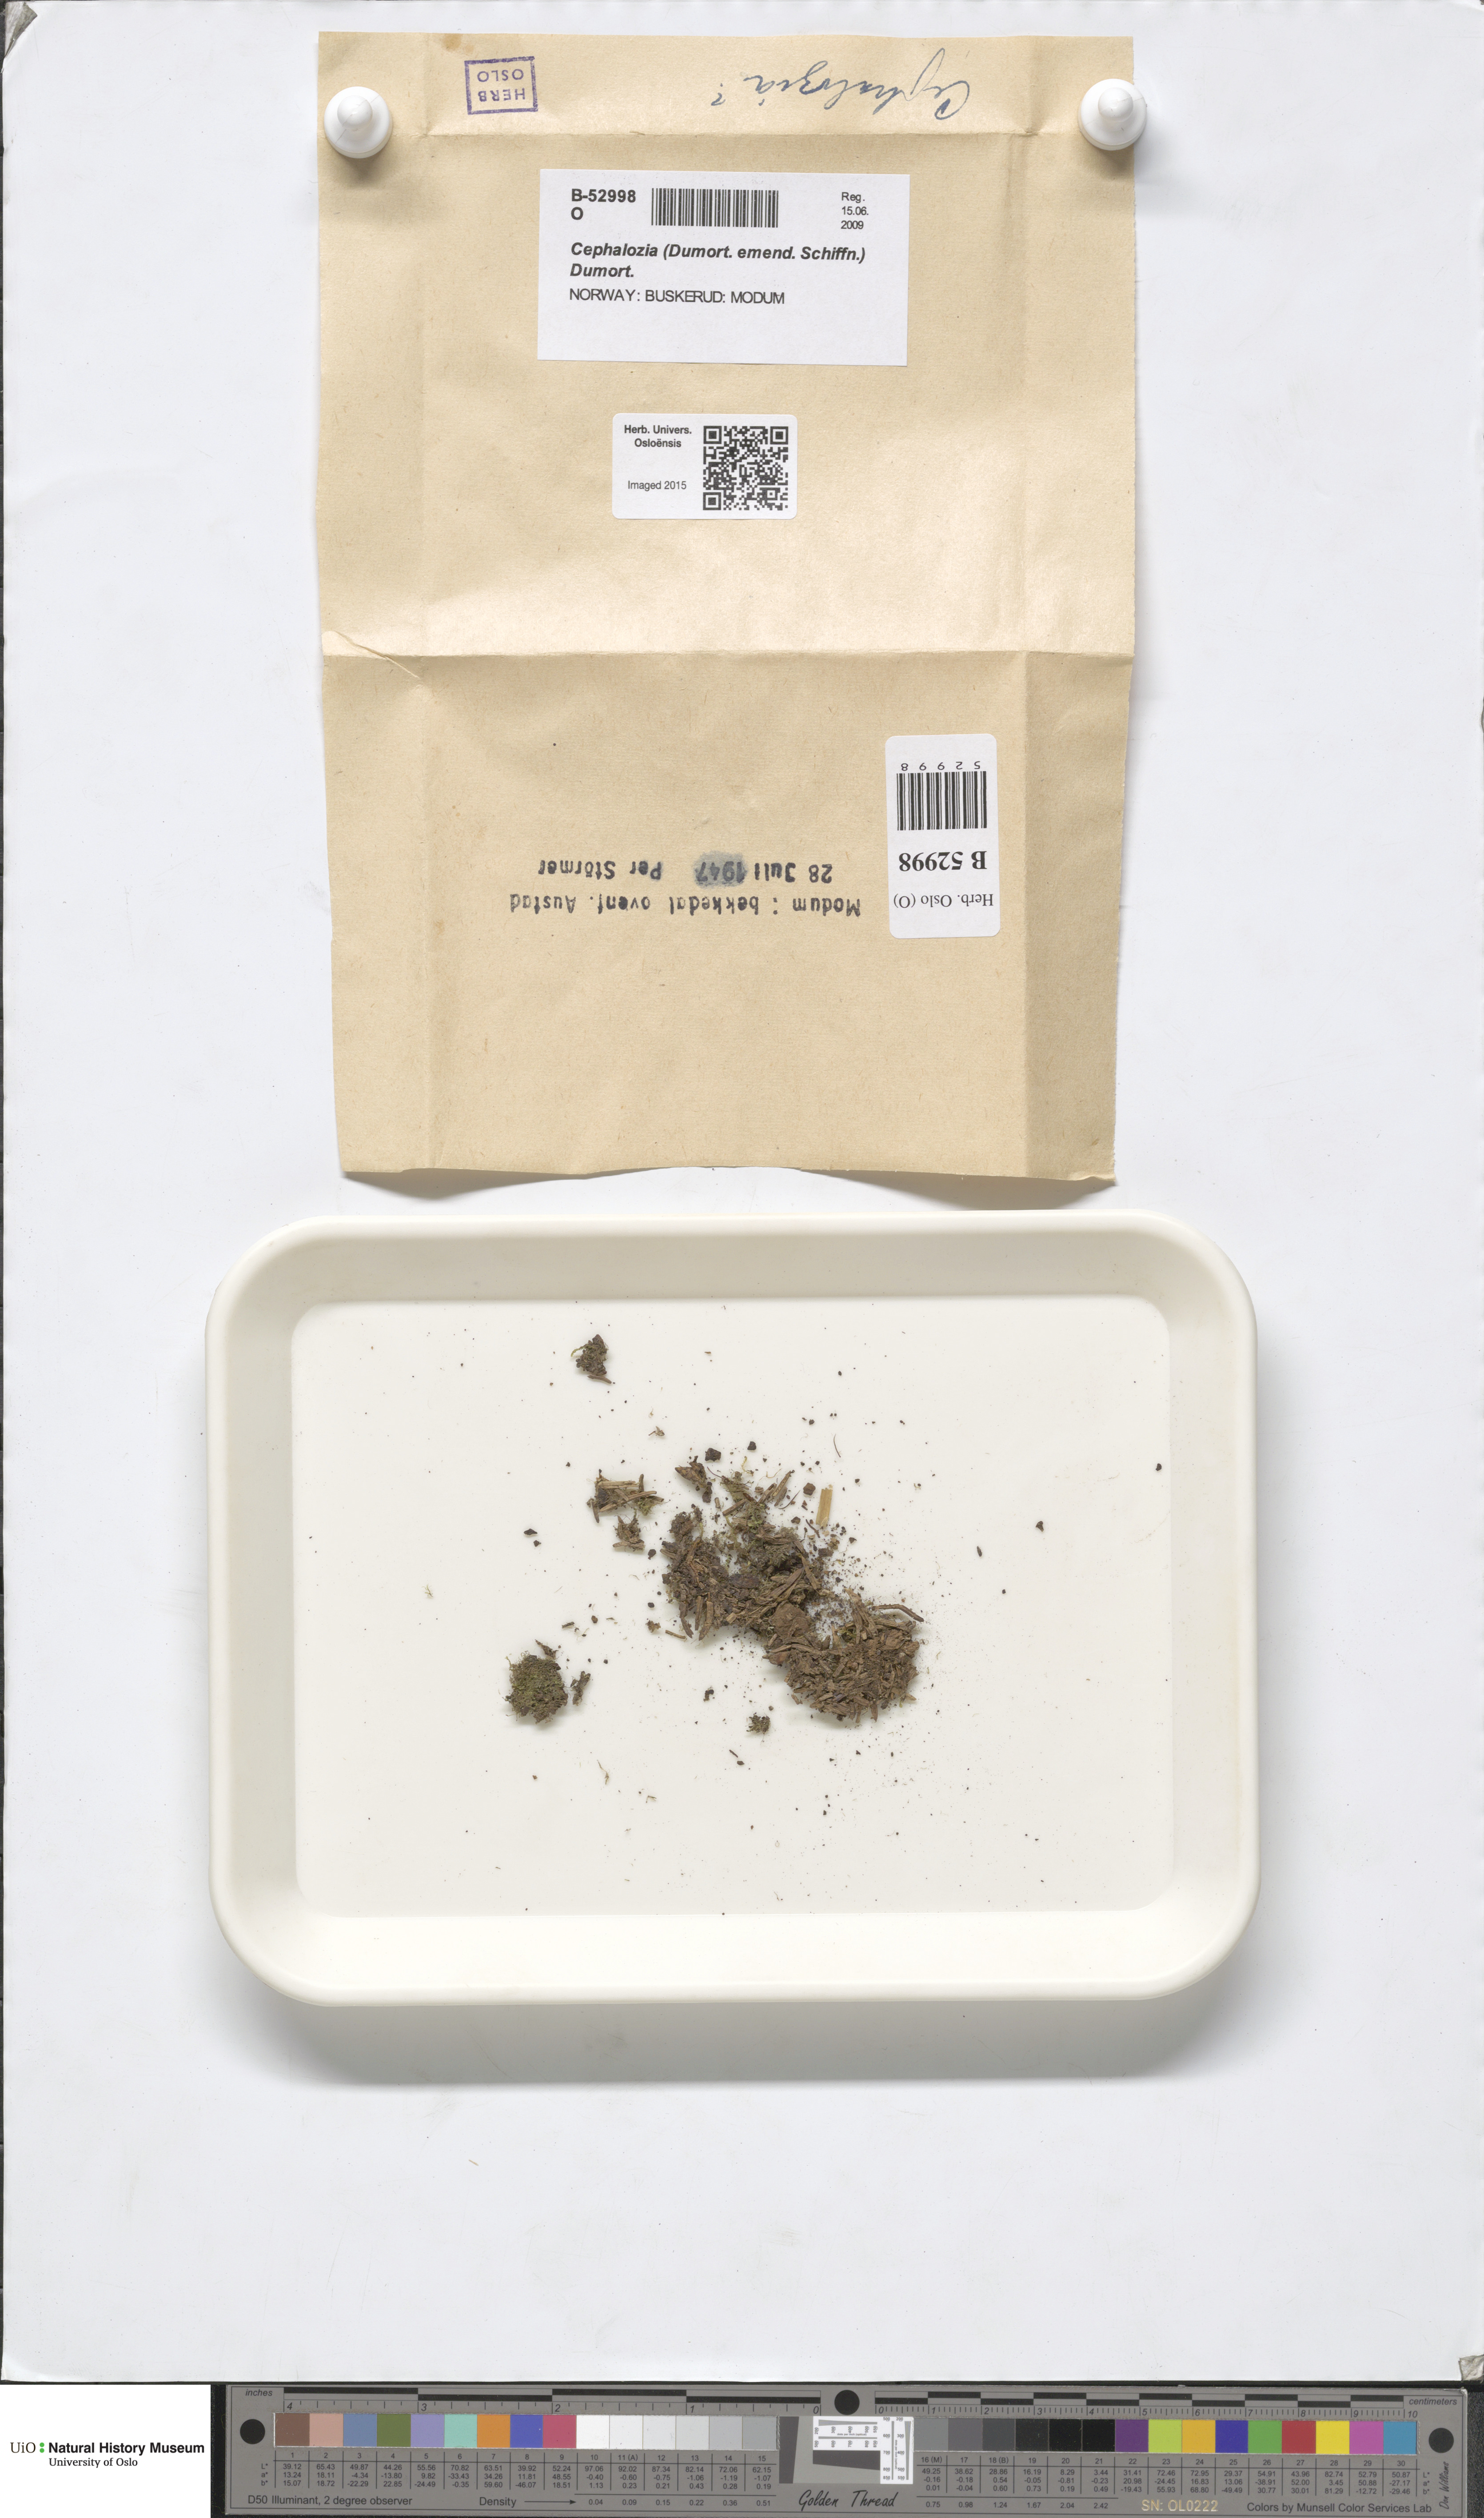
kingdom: Plantae
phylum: Marchantiophyta
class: Jungermanniopsida
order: Jungermanniales
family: Cephaloziaceae
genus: Cephalozia
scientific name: Cephalozia
